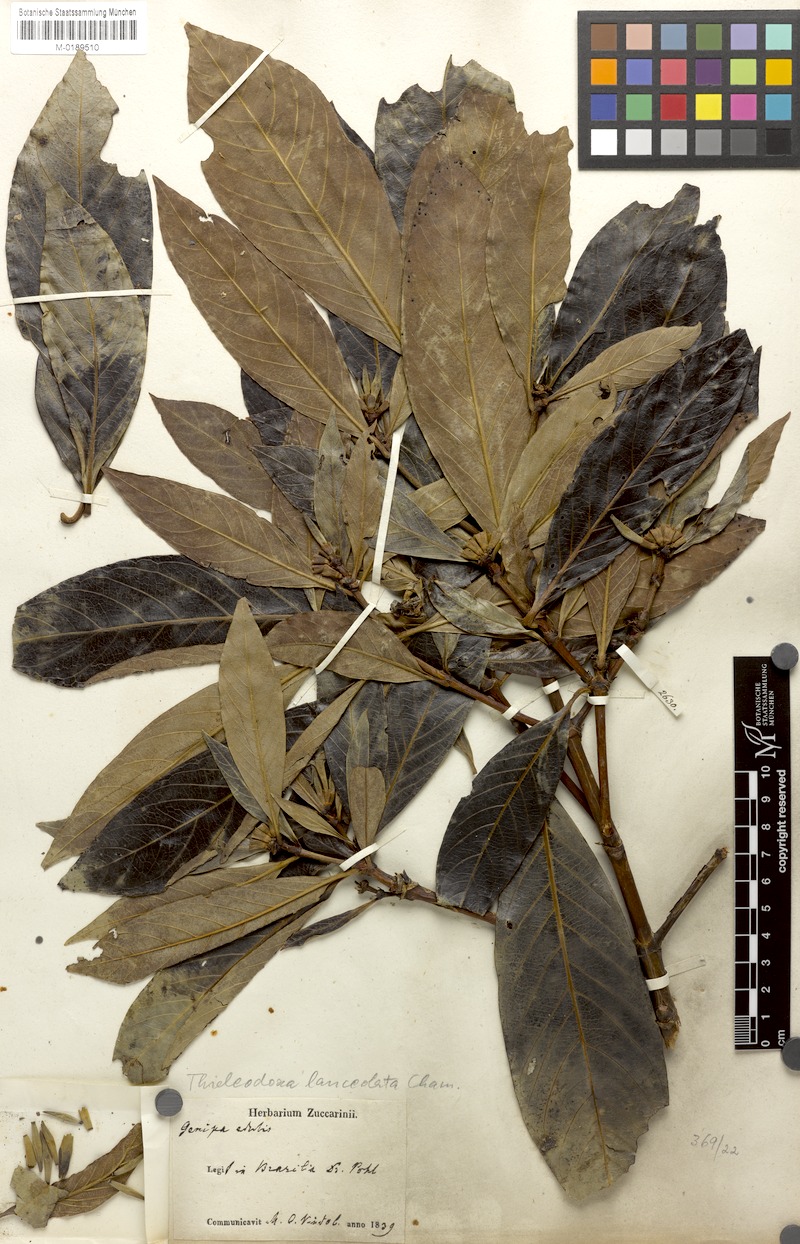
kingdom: Plantae
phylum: Tracheophyta
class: Magnoliopsida
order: Gentianales
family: Rubiaceae
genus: Alibertia
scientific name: Alibertia edulis
